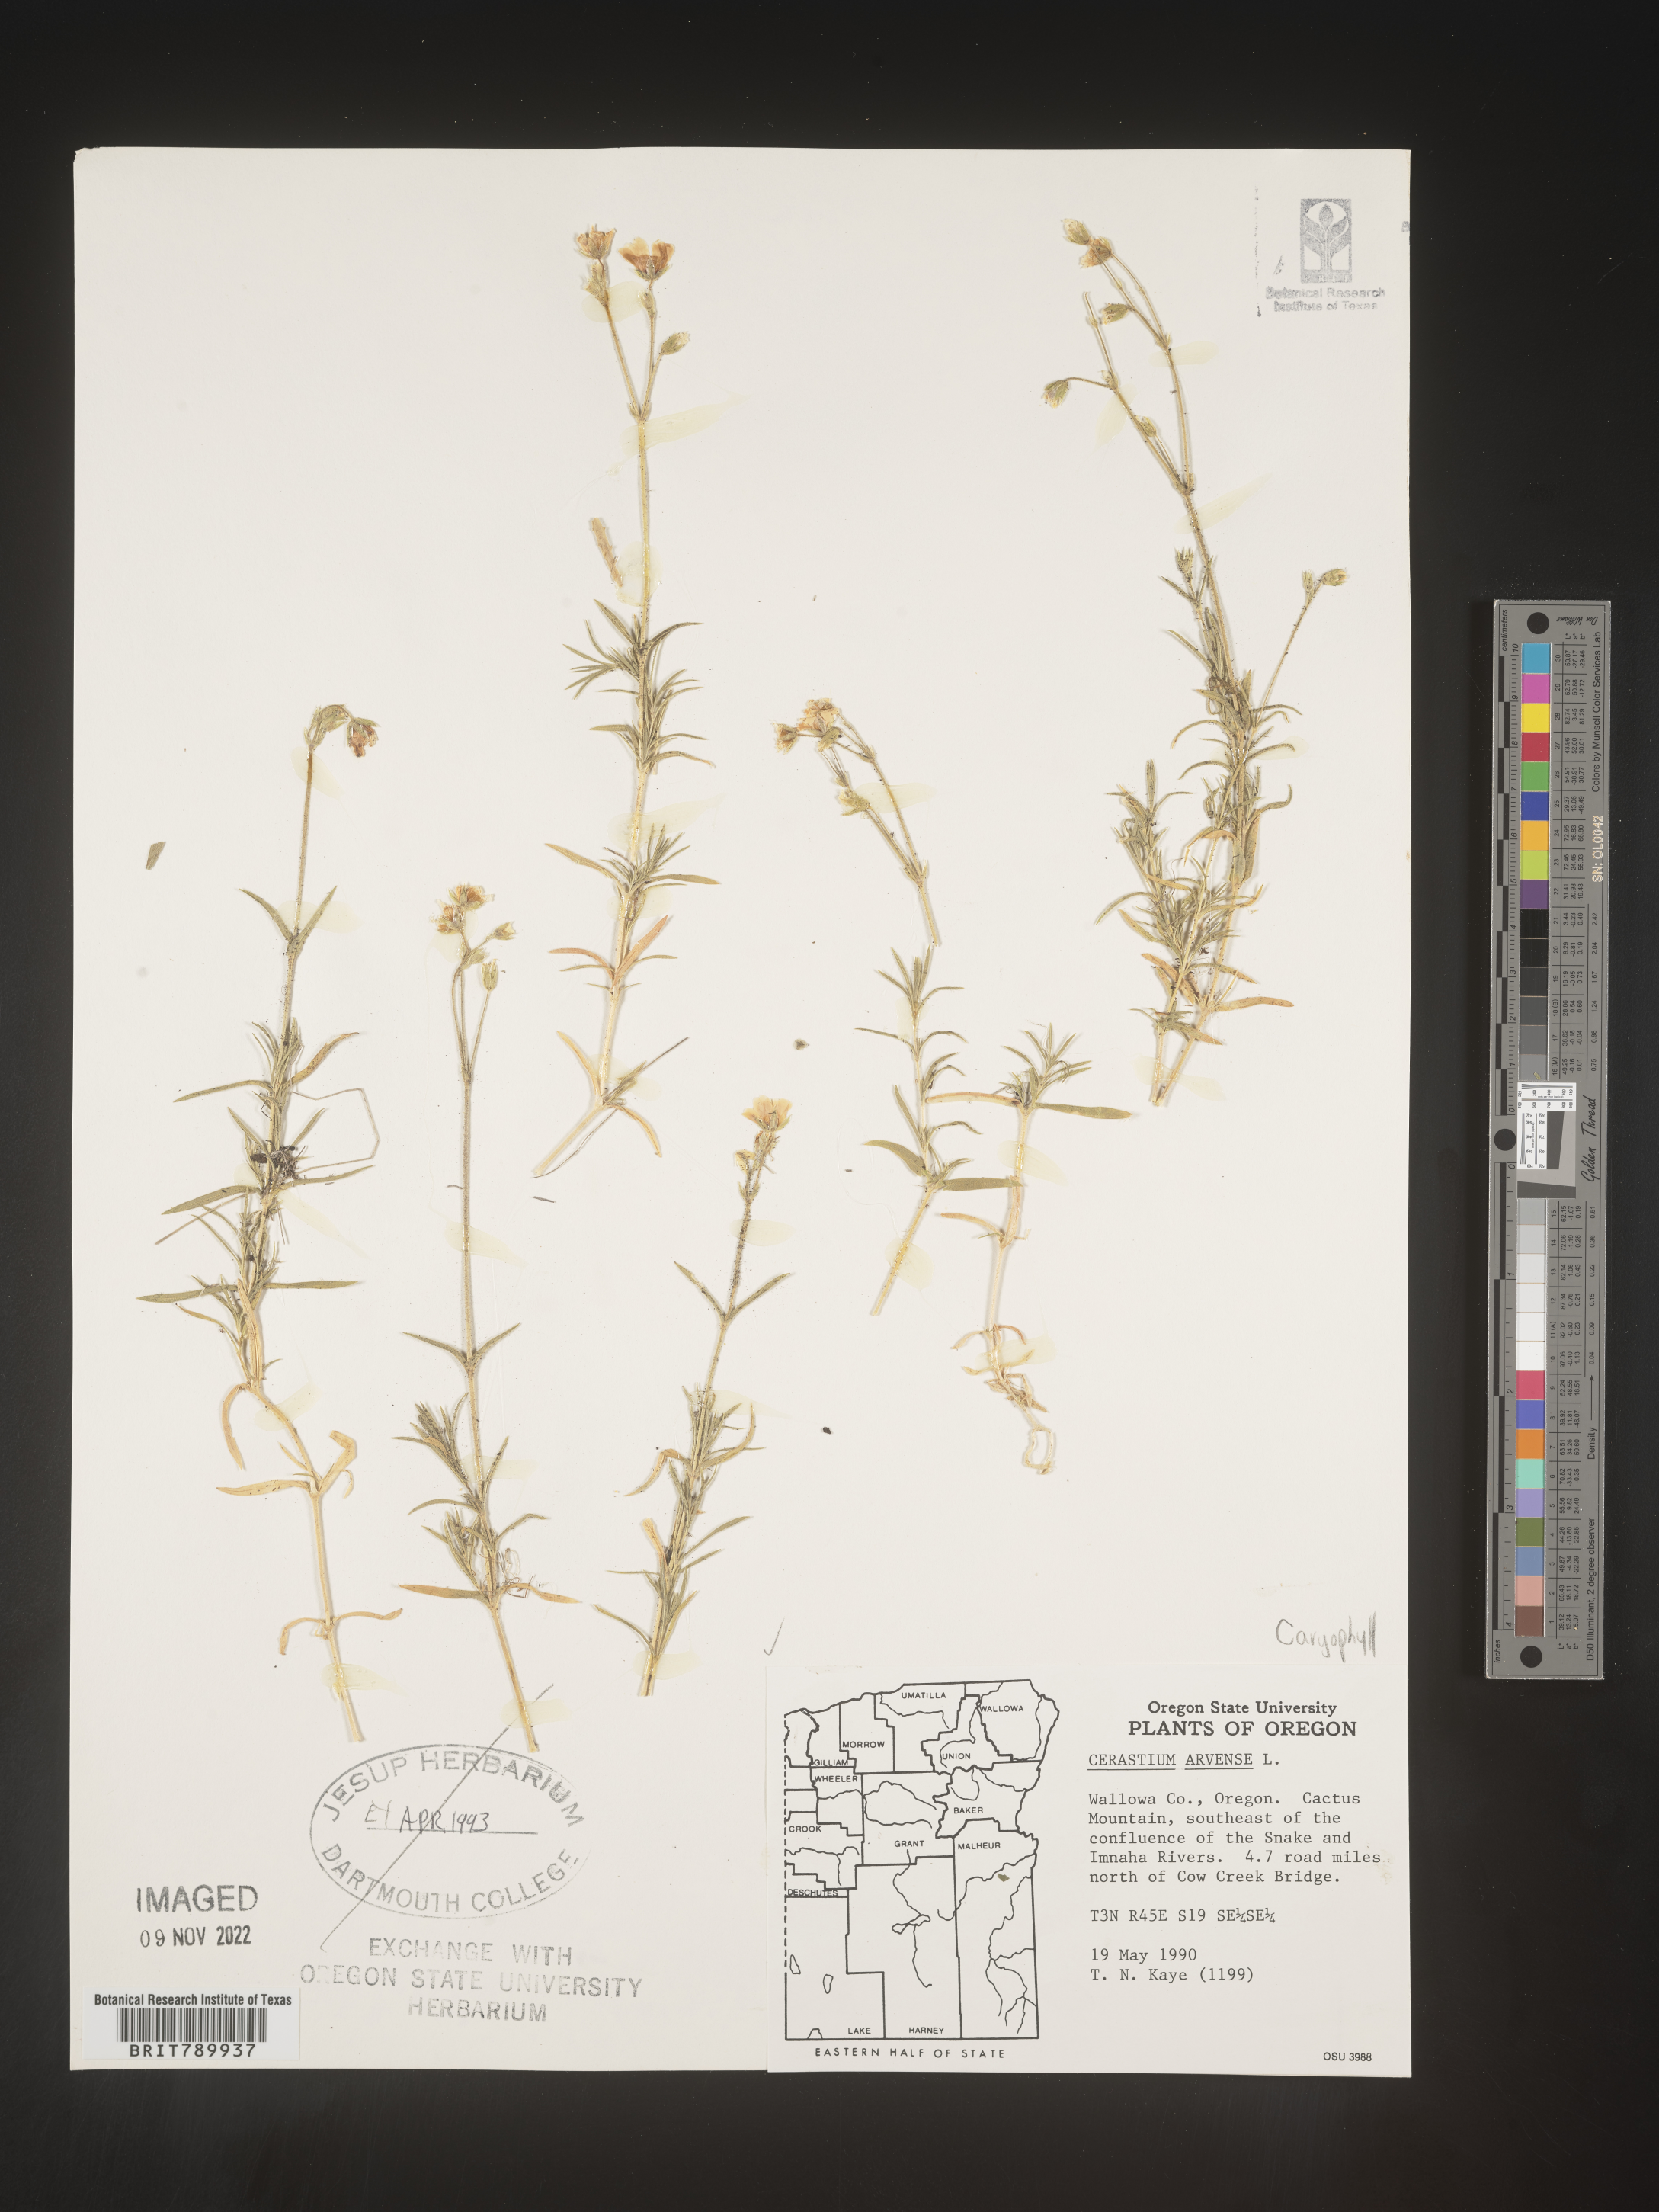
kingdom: Plantae
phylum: Tracheophyta
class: Magnoliopsida
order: Caryophyllales
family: Caryophyllaceae
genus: Cerastium
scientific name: Cerastium arvense
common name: Field mouse-ear
